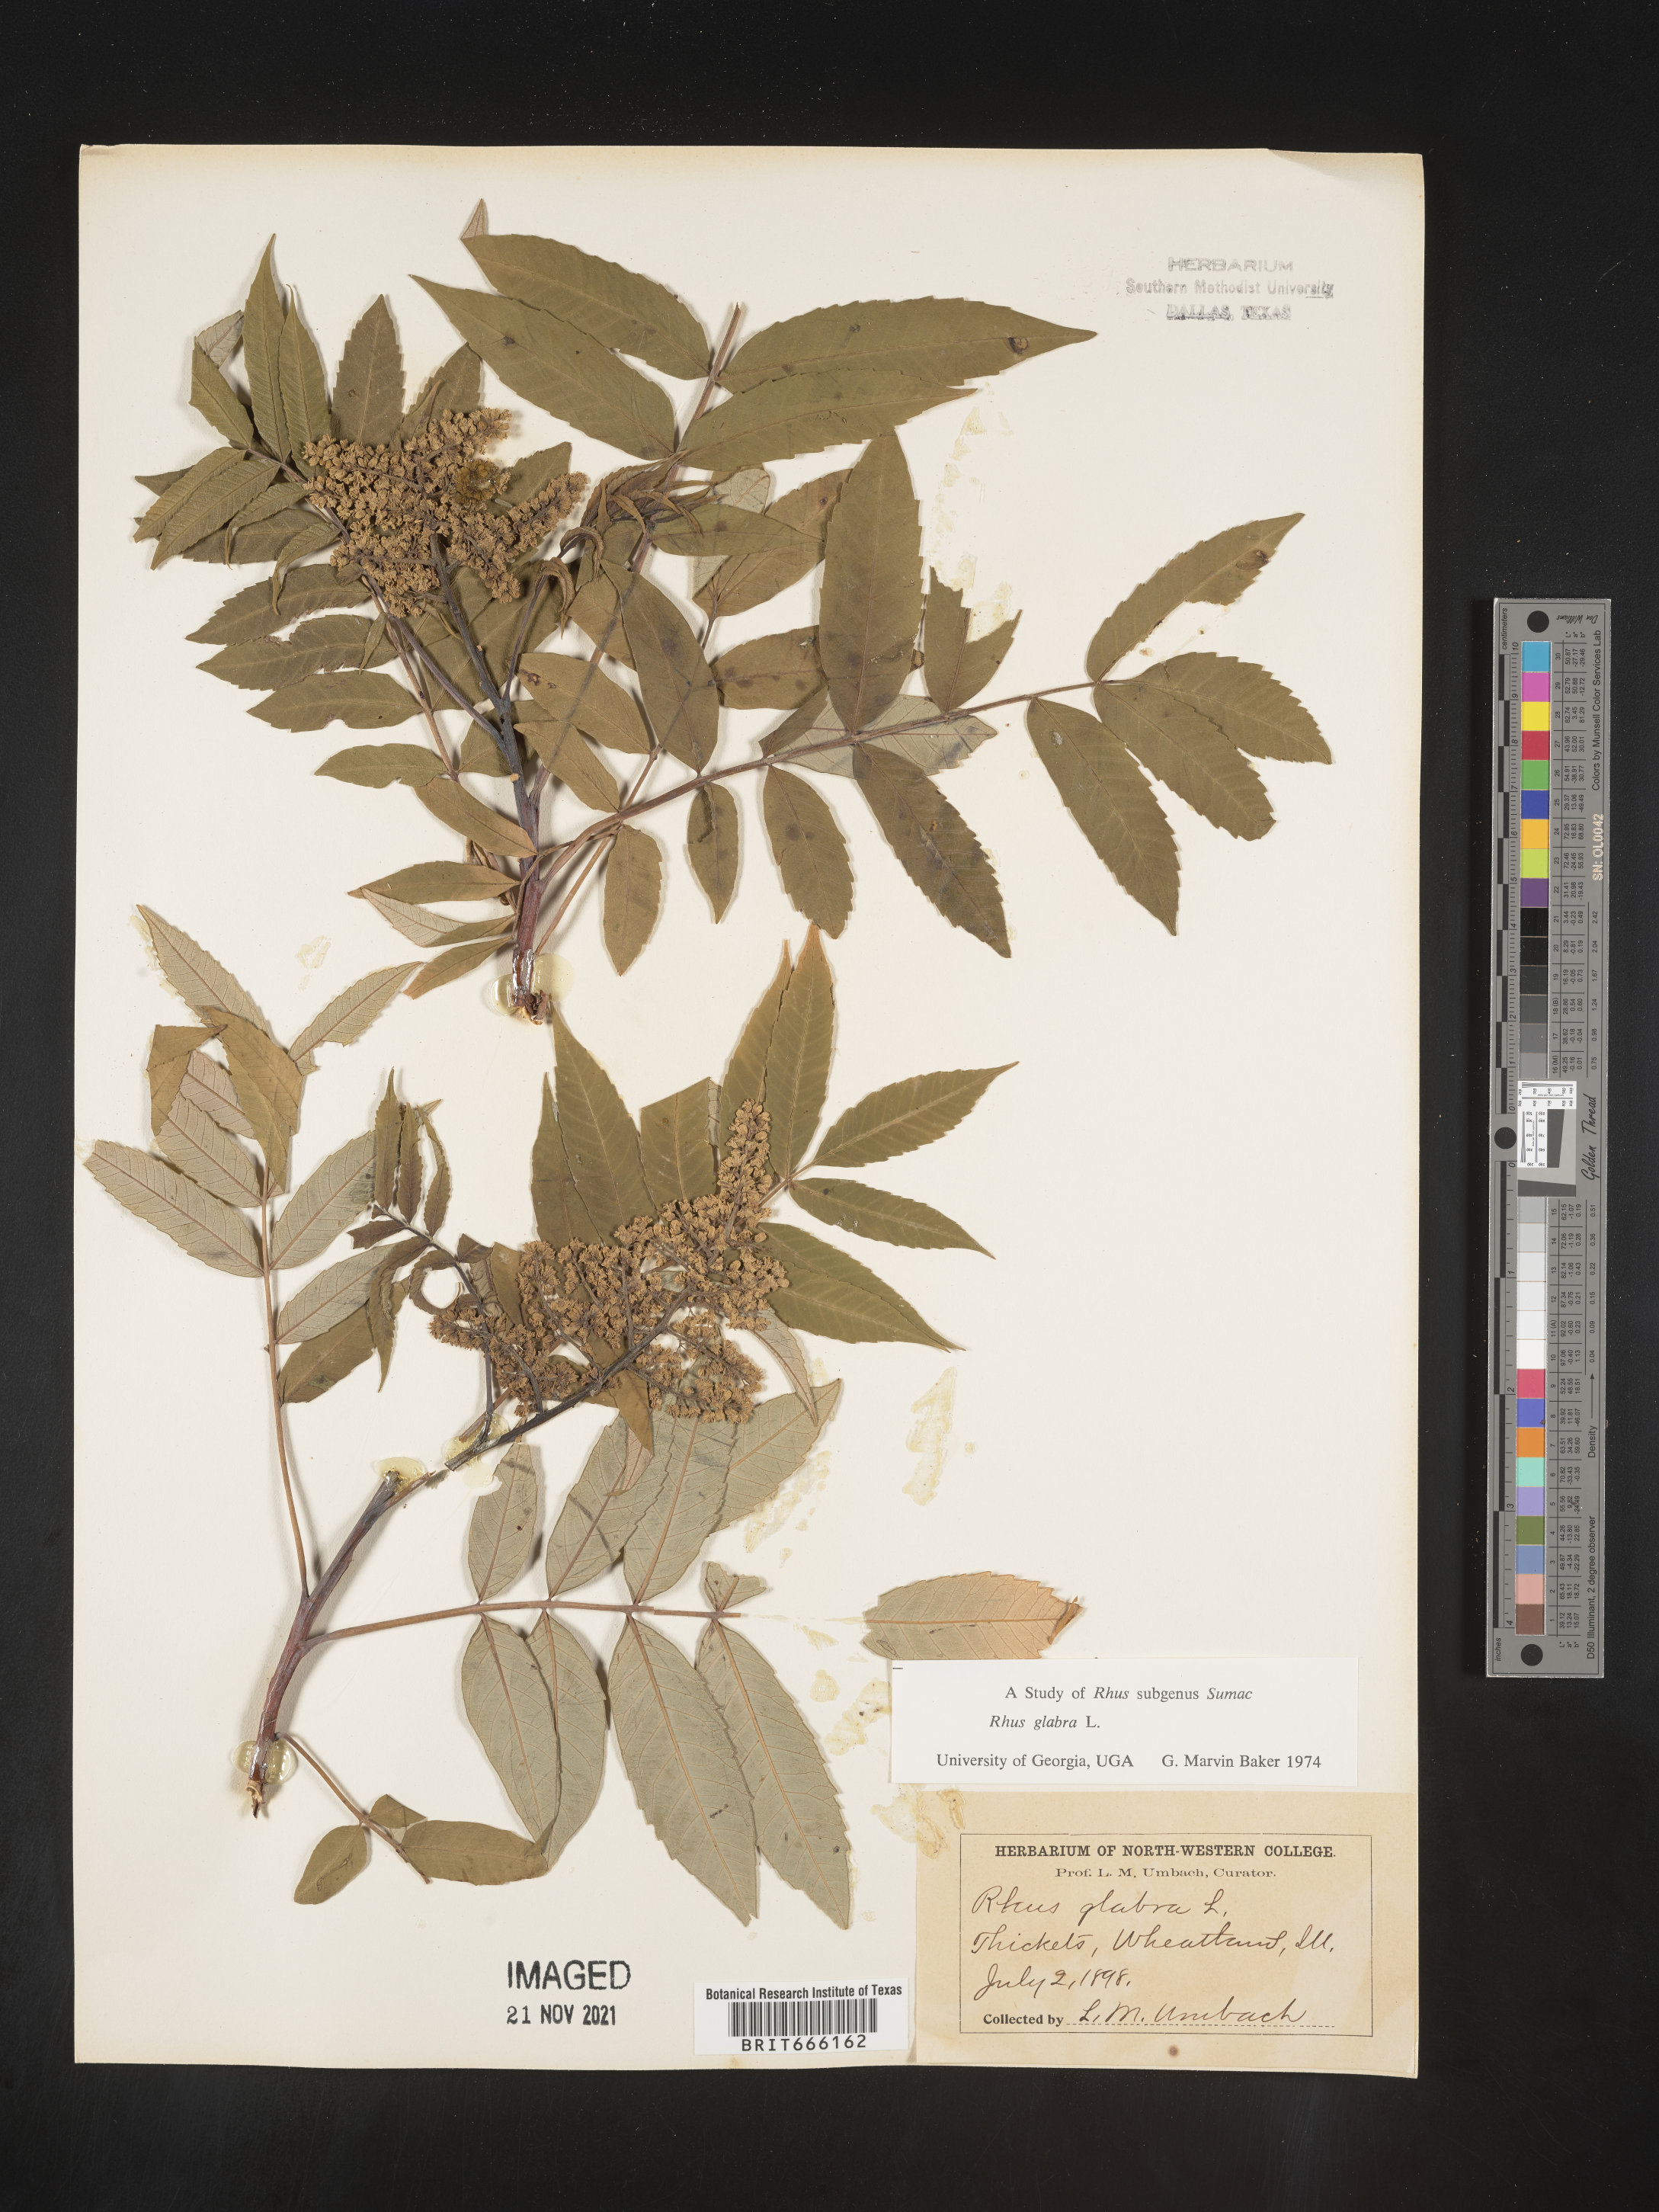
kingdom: Plantae
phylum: Tracheophyta
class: Magnoliopsida
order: Sapindales
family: Anacardiaceae
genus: Rhus
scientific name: Rhus glabra
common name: Scarlet sumac
